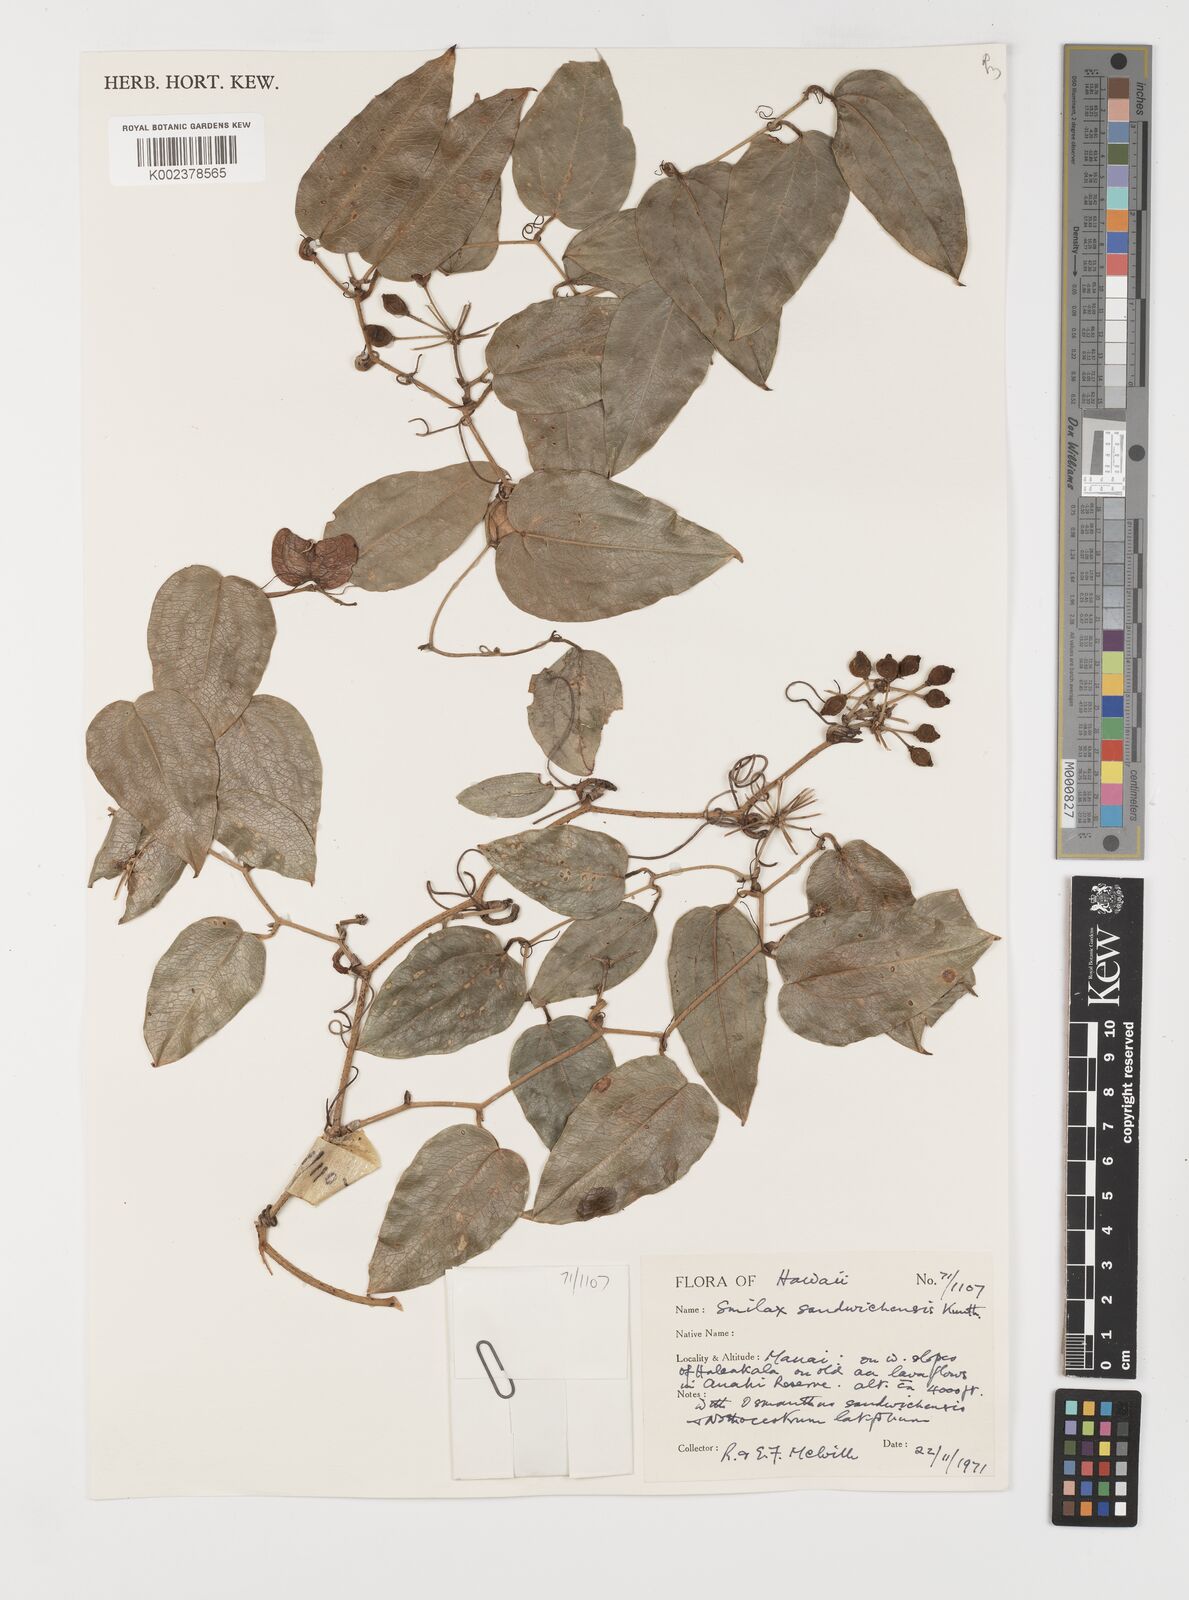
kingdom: Plantae
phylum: Tracheophyta
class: Liliopsida
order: Liliales
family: Smilacaceae
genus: Smilax
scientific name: Smilax melastomifolia
